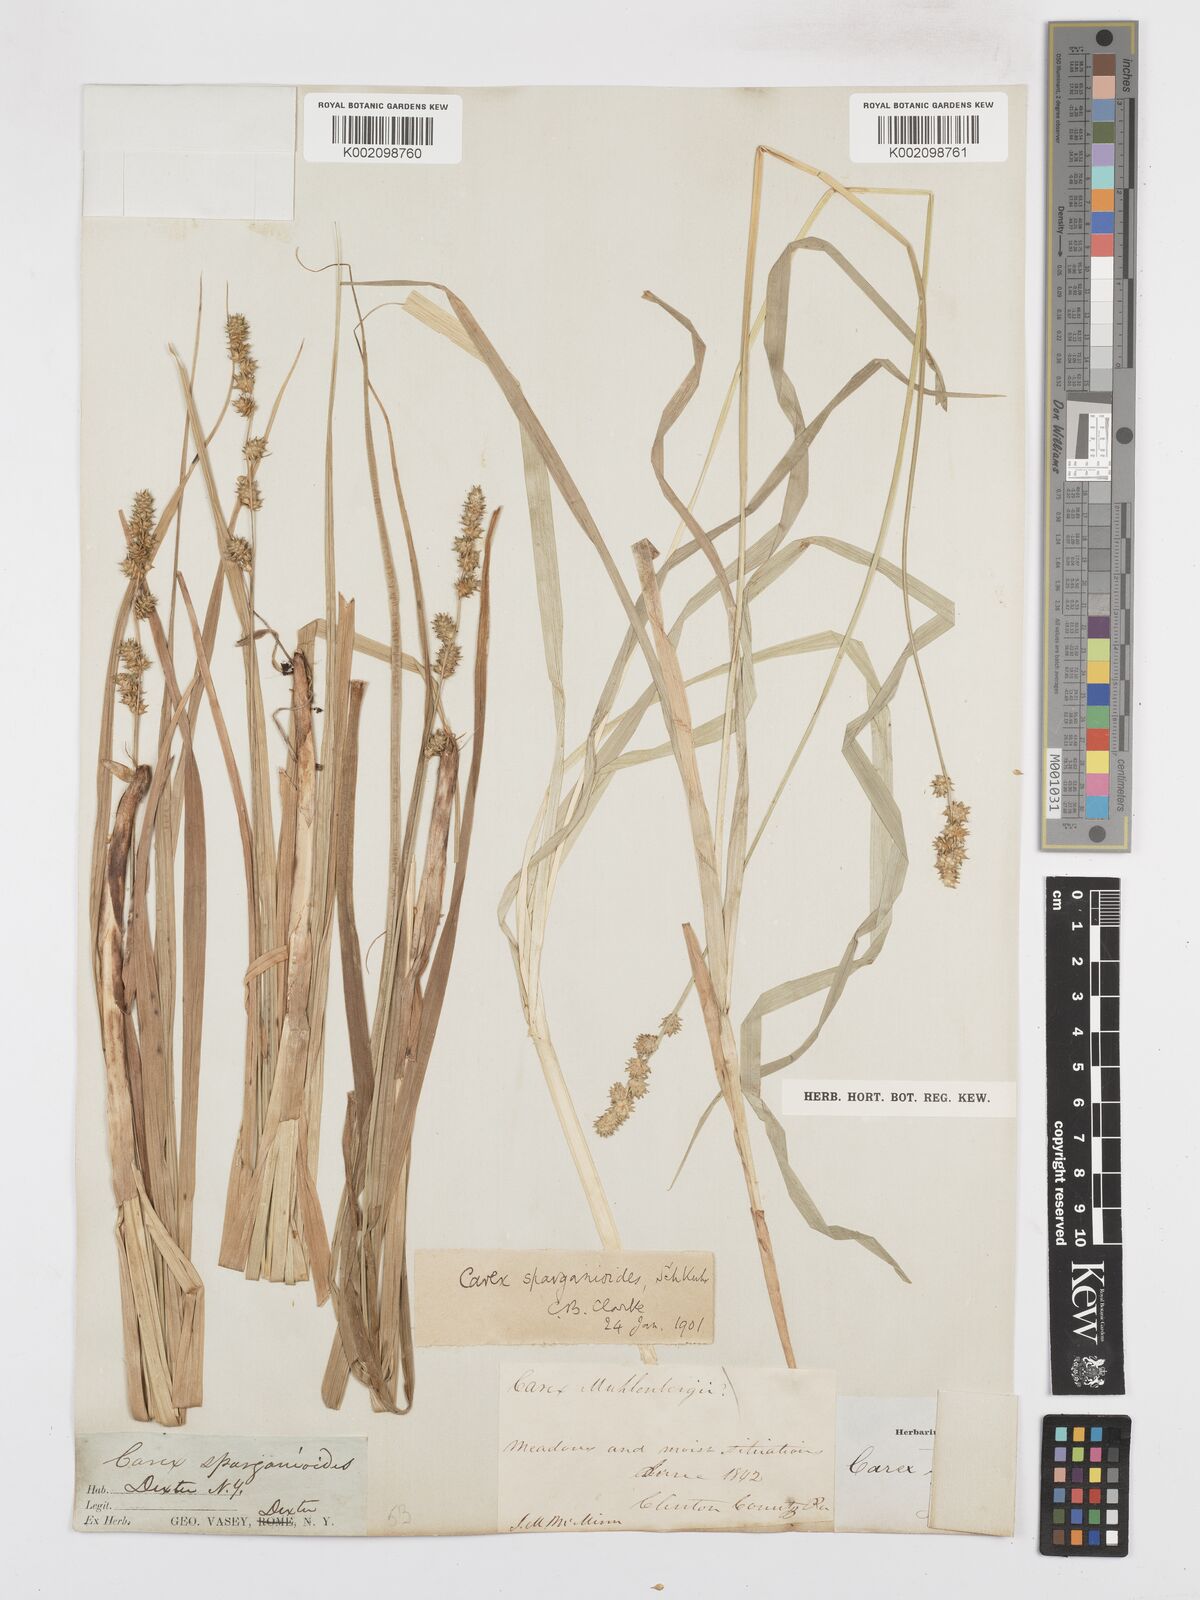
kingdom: Plantae
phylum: Tracheophyta
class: Liliopsida
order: Poales
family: Cyperaceae
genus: Carex
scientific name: Carex sparganioides
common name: Burreed sedge
